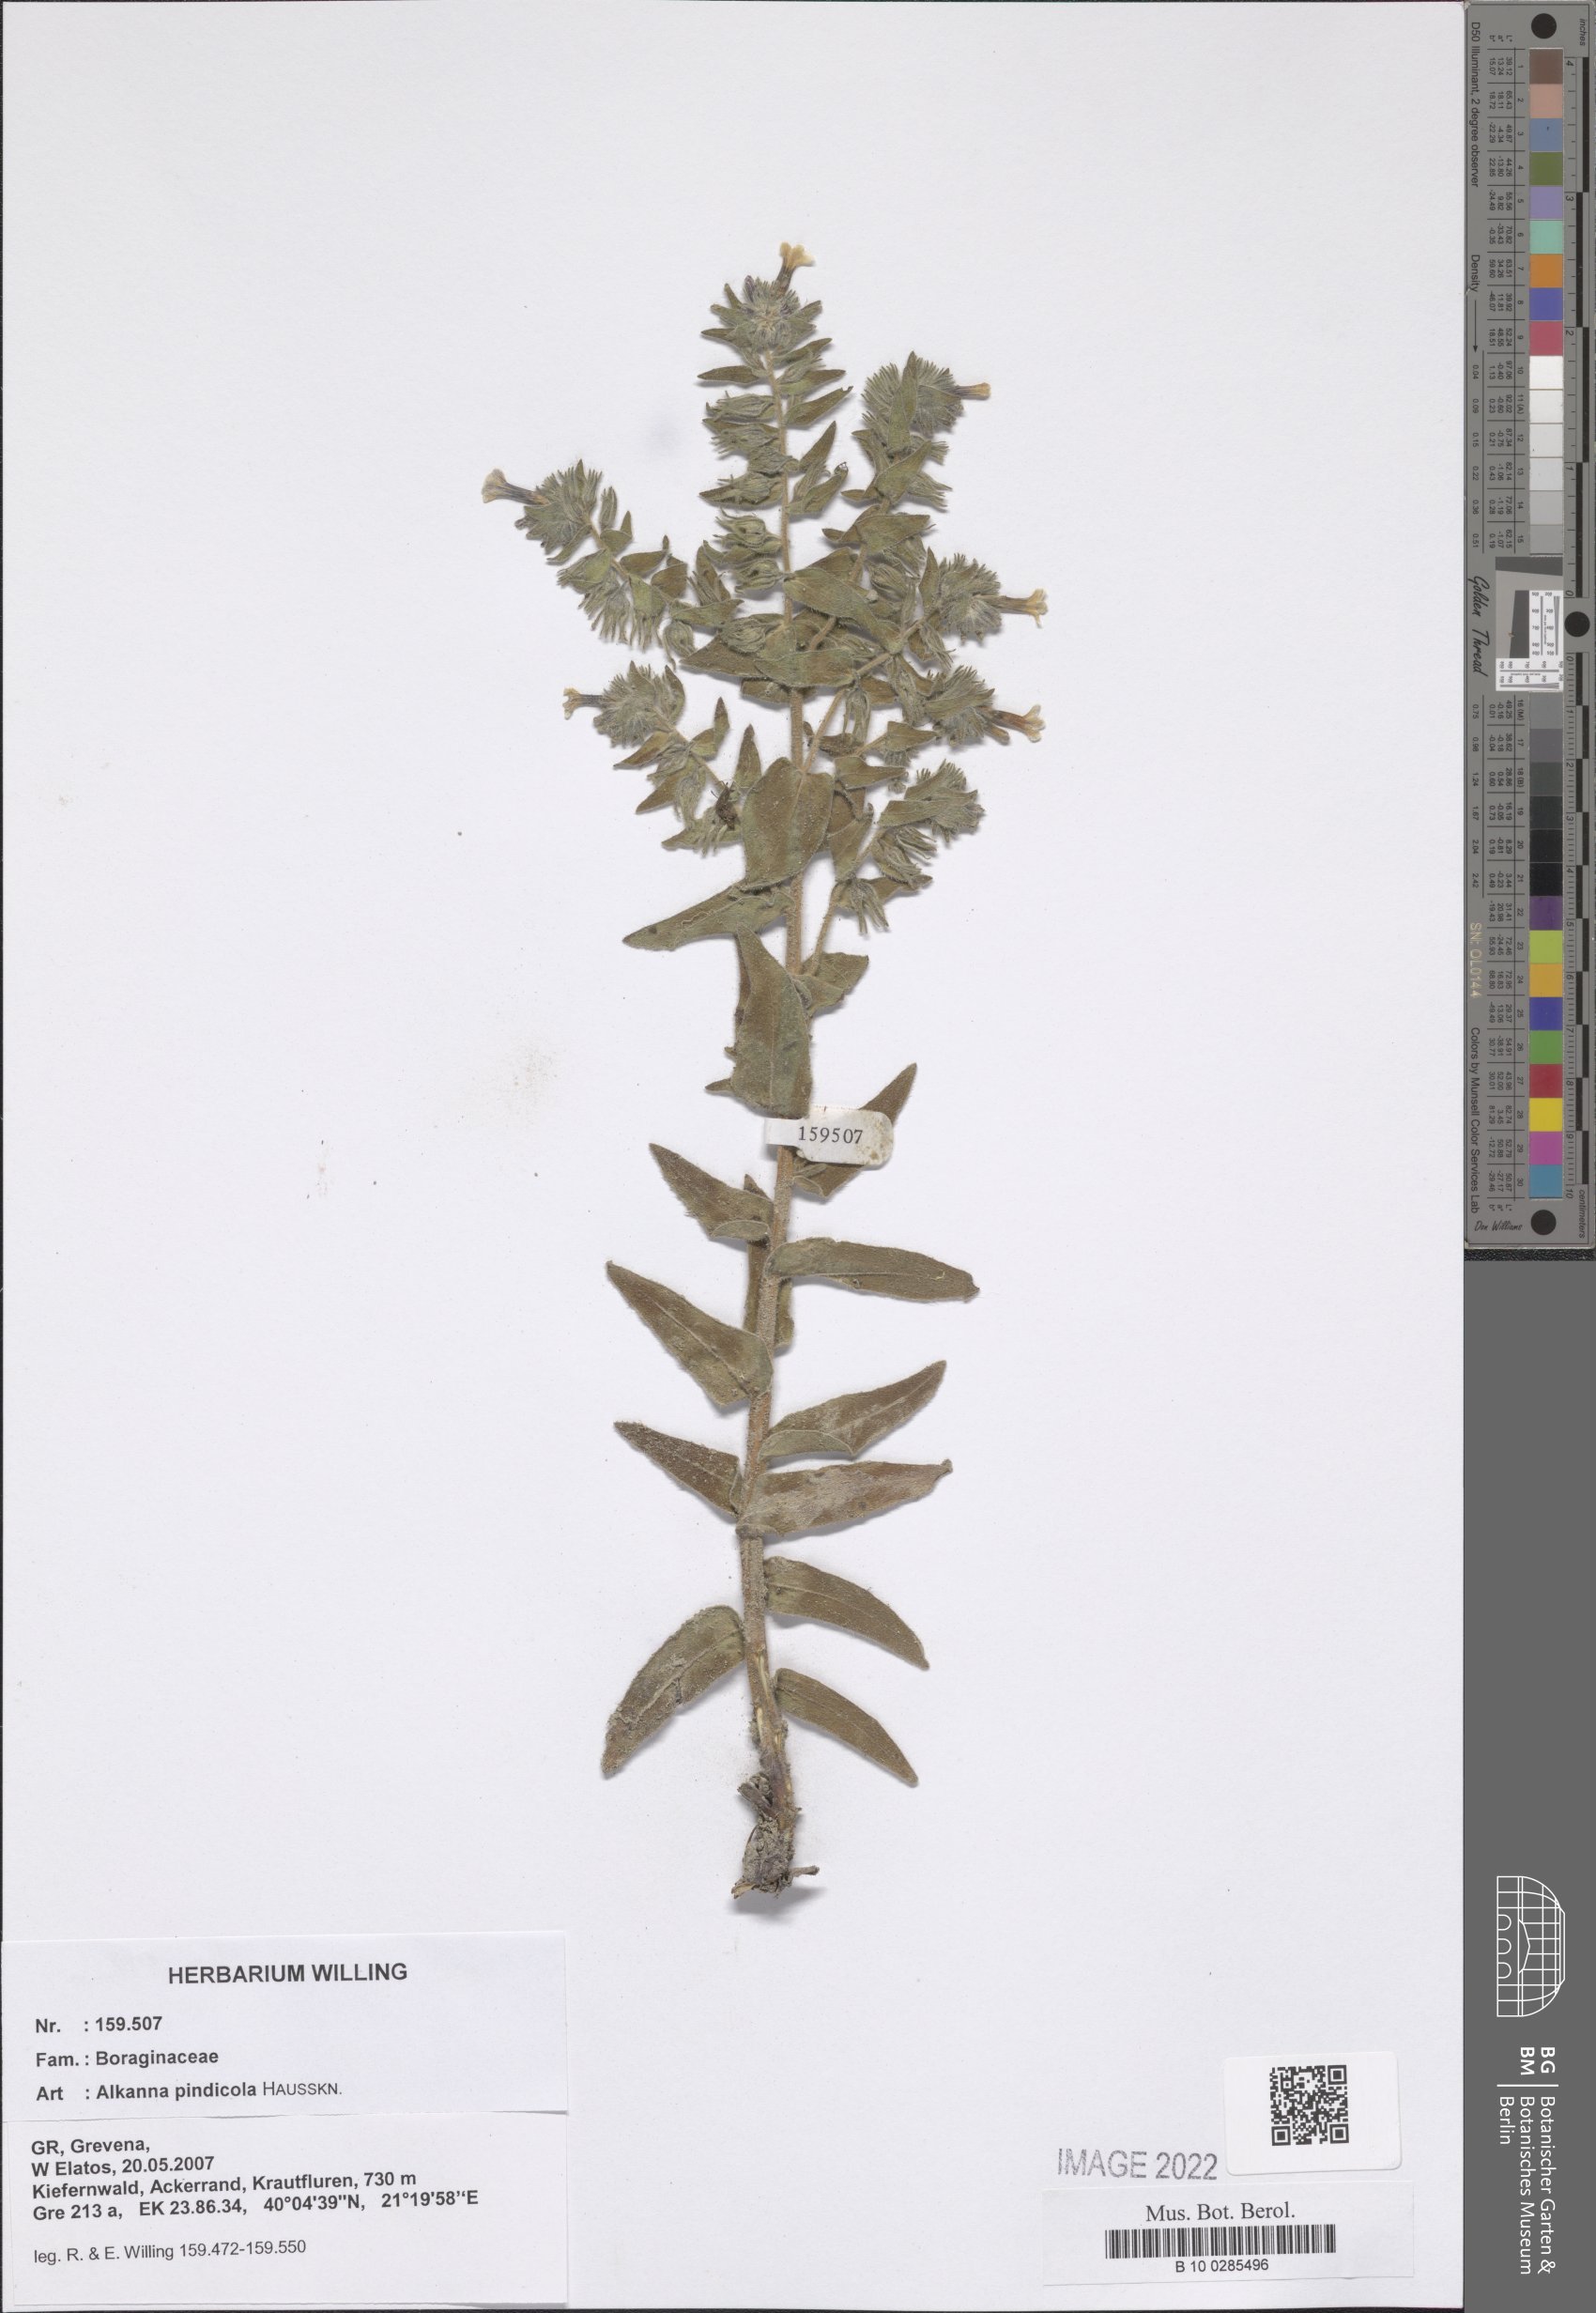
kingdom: Plantae
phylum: Tracheophyta
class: Magnoliopsida
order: Boraginales
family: Boraginaceae
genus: Alkanna
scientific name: Alkanna pindicola
